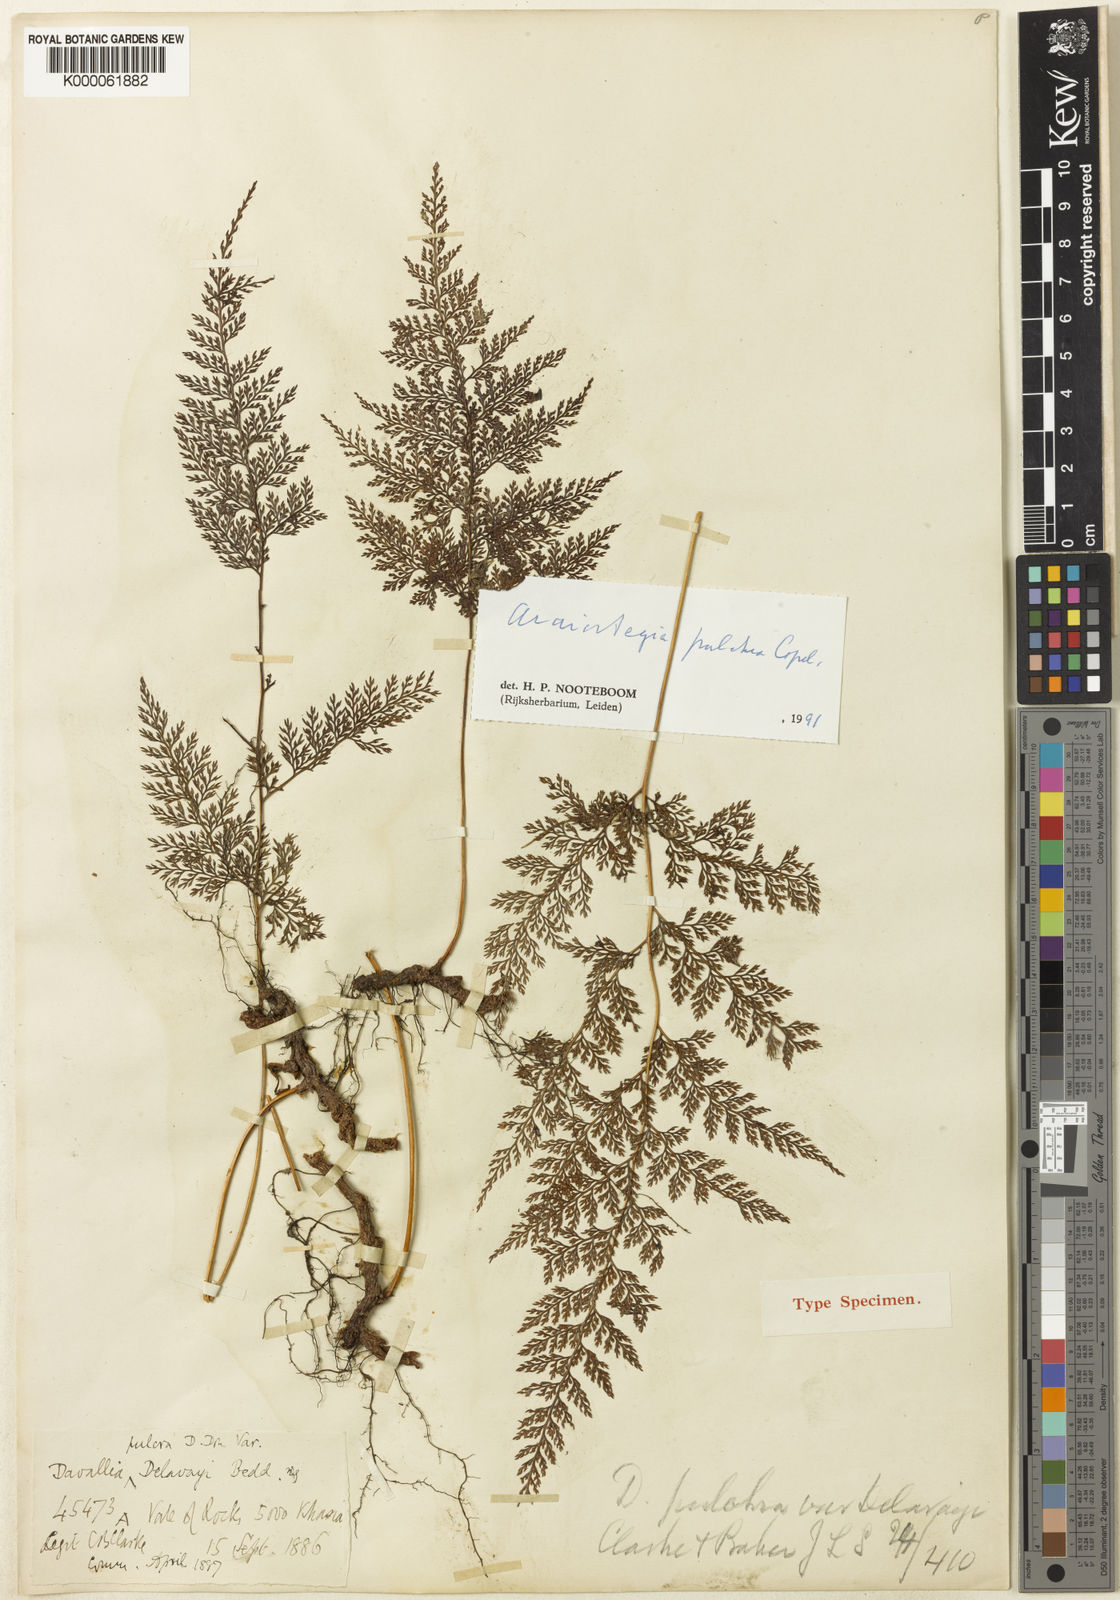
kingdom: Plantae
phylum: Tracheophyta
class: Polypodiopsida
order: Polypodiales
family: Davalliaceae
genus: Davallodes
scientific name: Davallodes pulchra
